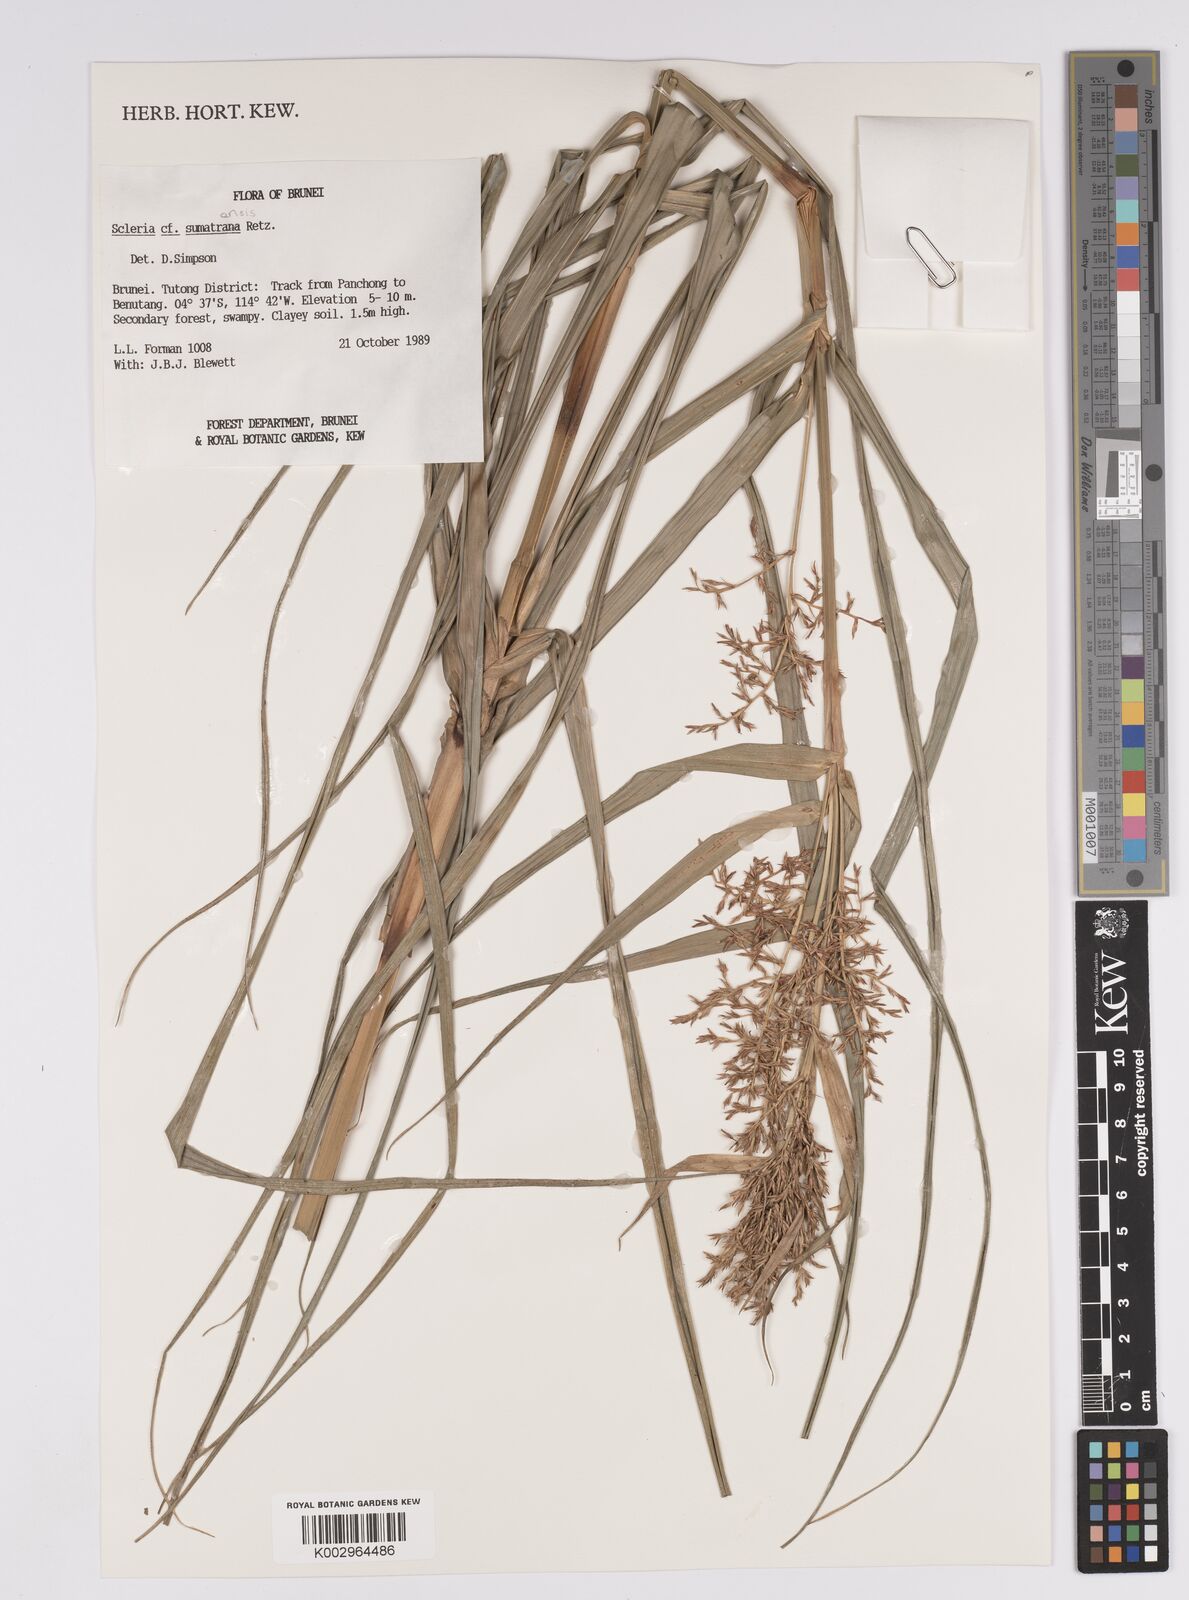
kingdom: Plantae
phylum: Tracheophyta
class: Liliopsida
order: Poales
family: Cyperaceae
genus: Scleria
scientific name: Scleria sumatrensis
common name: Sumatran scleria
